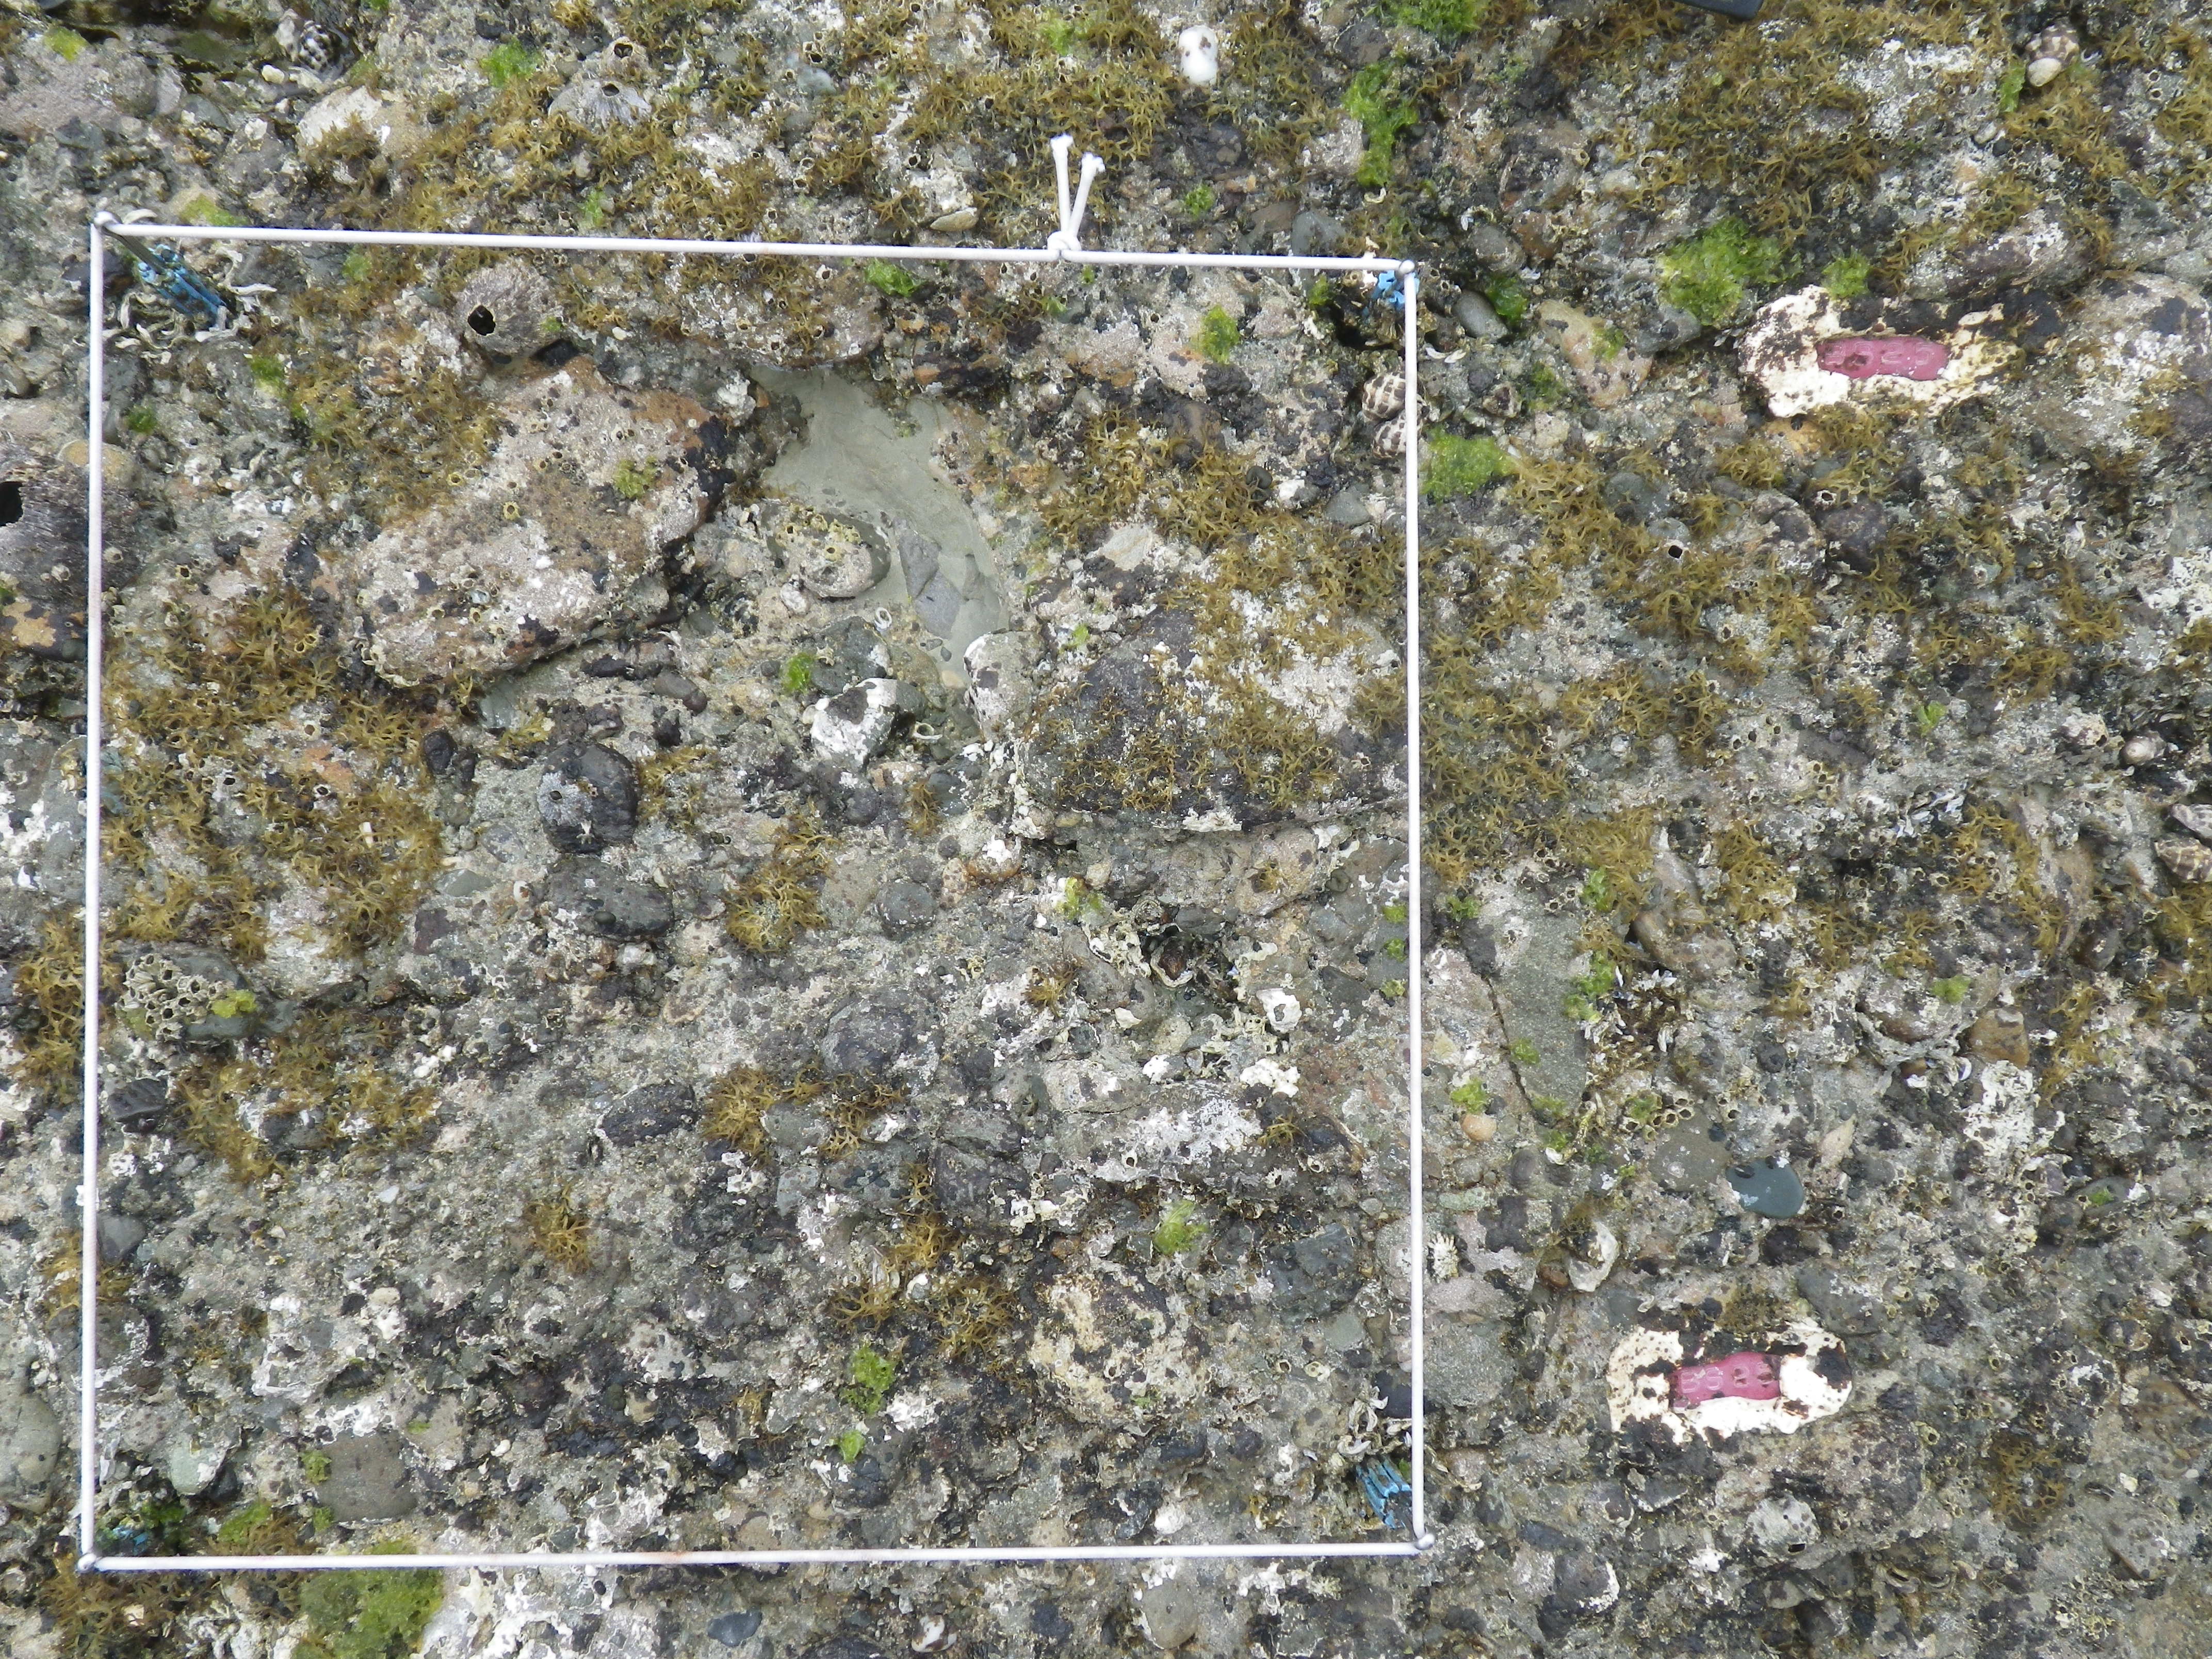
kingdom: Animalia
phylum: Arthropoda
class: Maxillopoda
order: Sessilia
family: Chthamalidae
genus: Chthamalus
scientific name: Chthamalus challengeri
